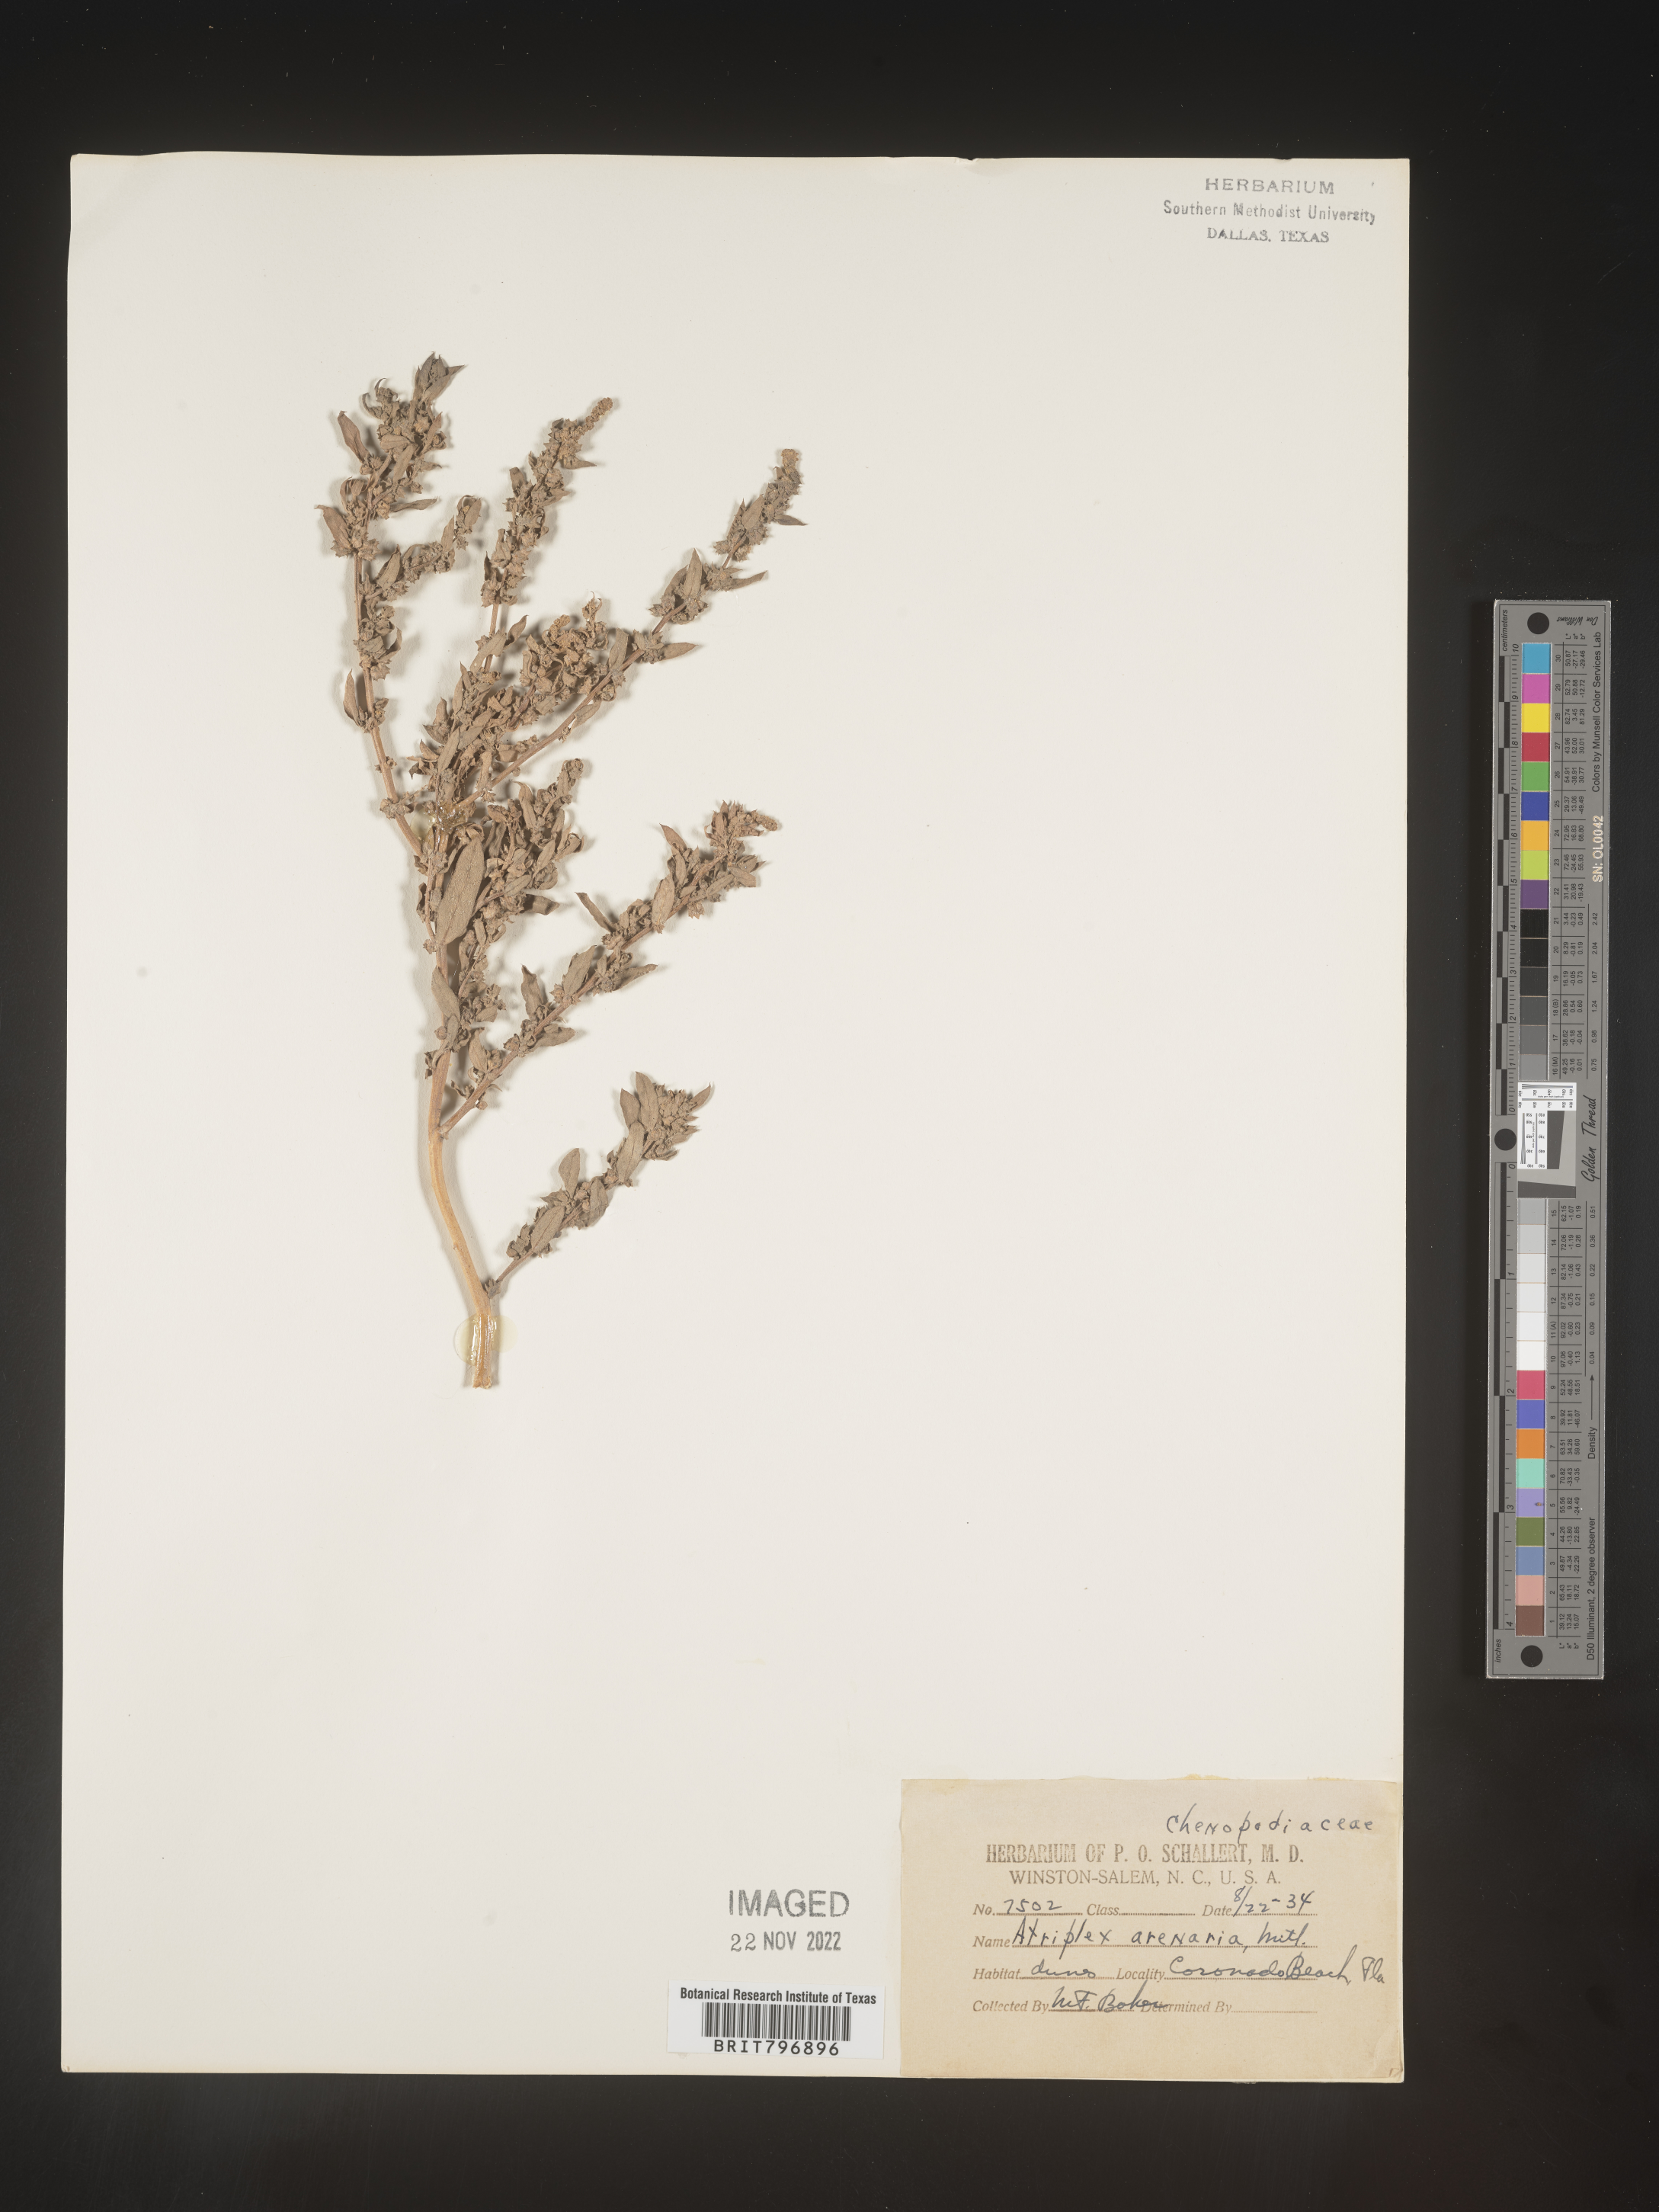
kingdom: Plantae
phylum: Tracheophyta
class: Magnoliopsida
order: Caryophyllales
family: Amaranthaceae
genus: Atriplex
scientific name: Atriplex mucronata
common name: Quelite
